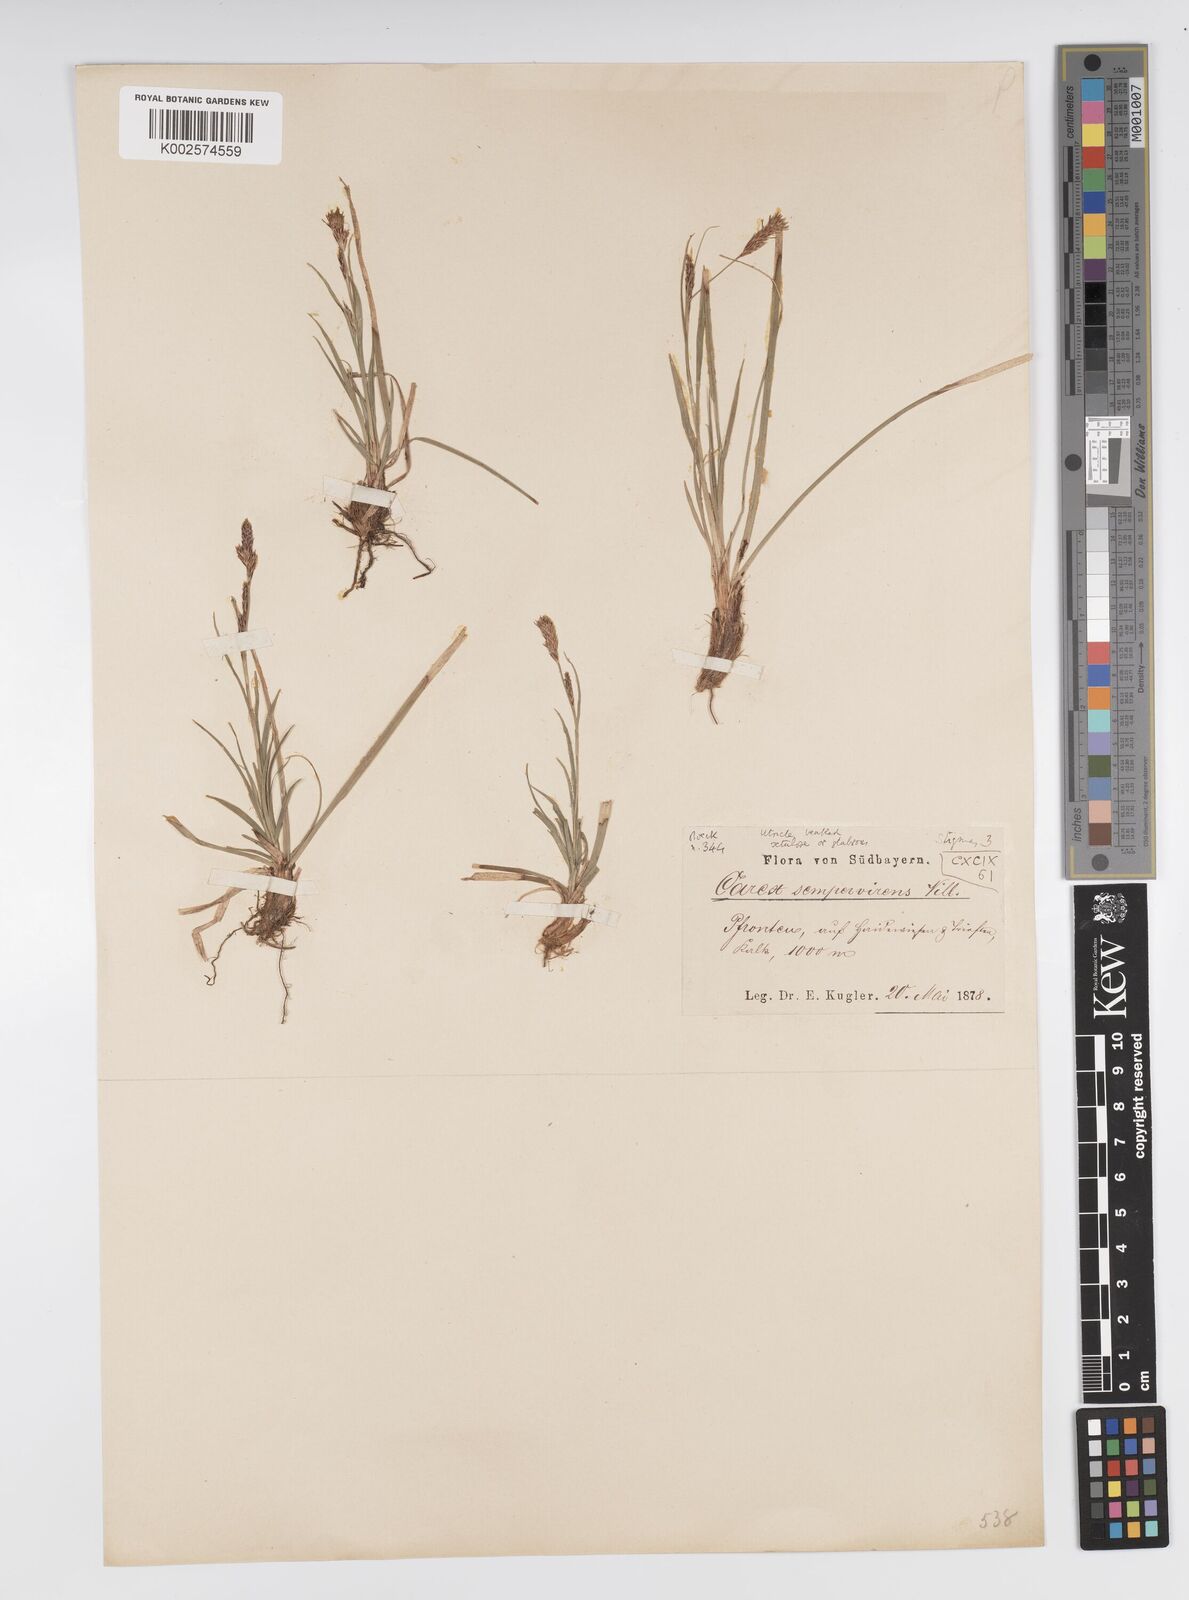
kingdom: Plantae
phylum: Tracheophyta
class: Liliopsida
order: Poales
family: Cyperaceae
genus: Carex
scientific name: Carex sempervirens
